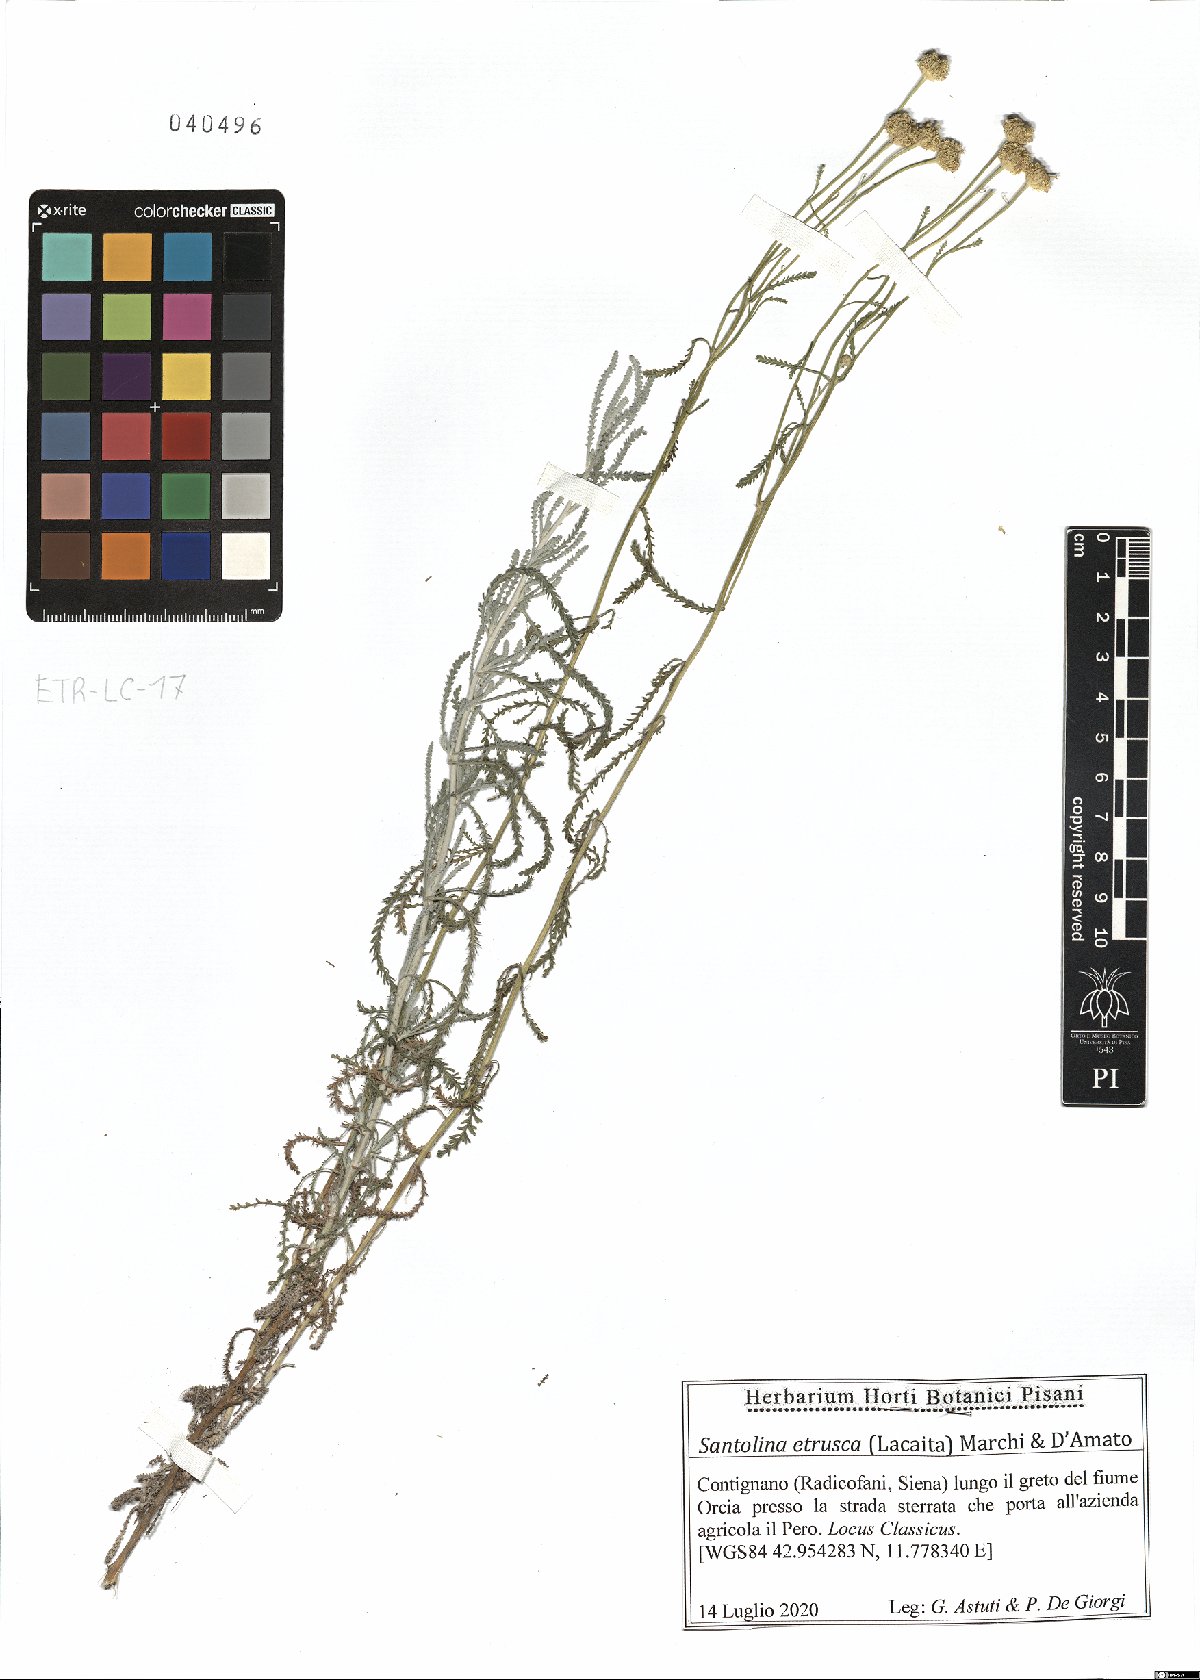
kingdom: Plantae
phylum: Tracheophyta
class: Magnoliopsida
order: Asterales
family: Asteraceae
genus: Santolina
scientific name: Santolina etrusca
